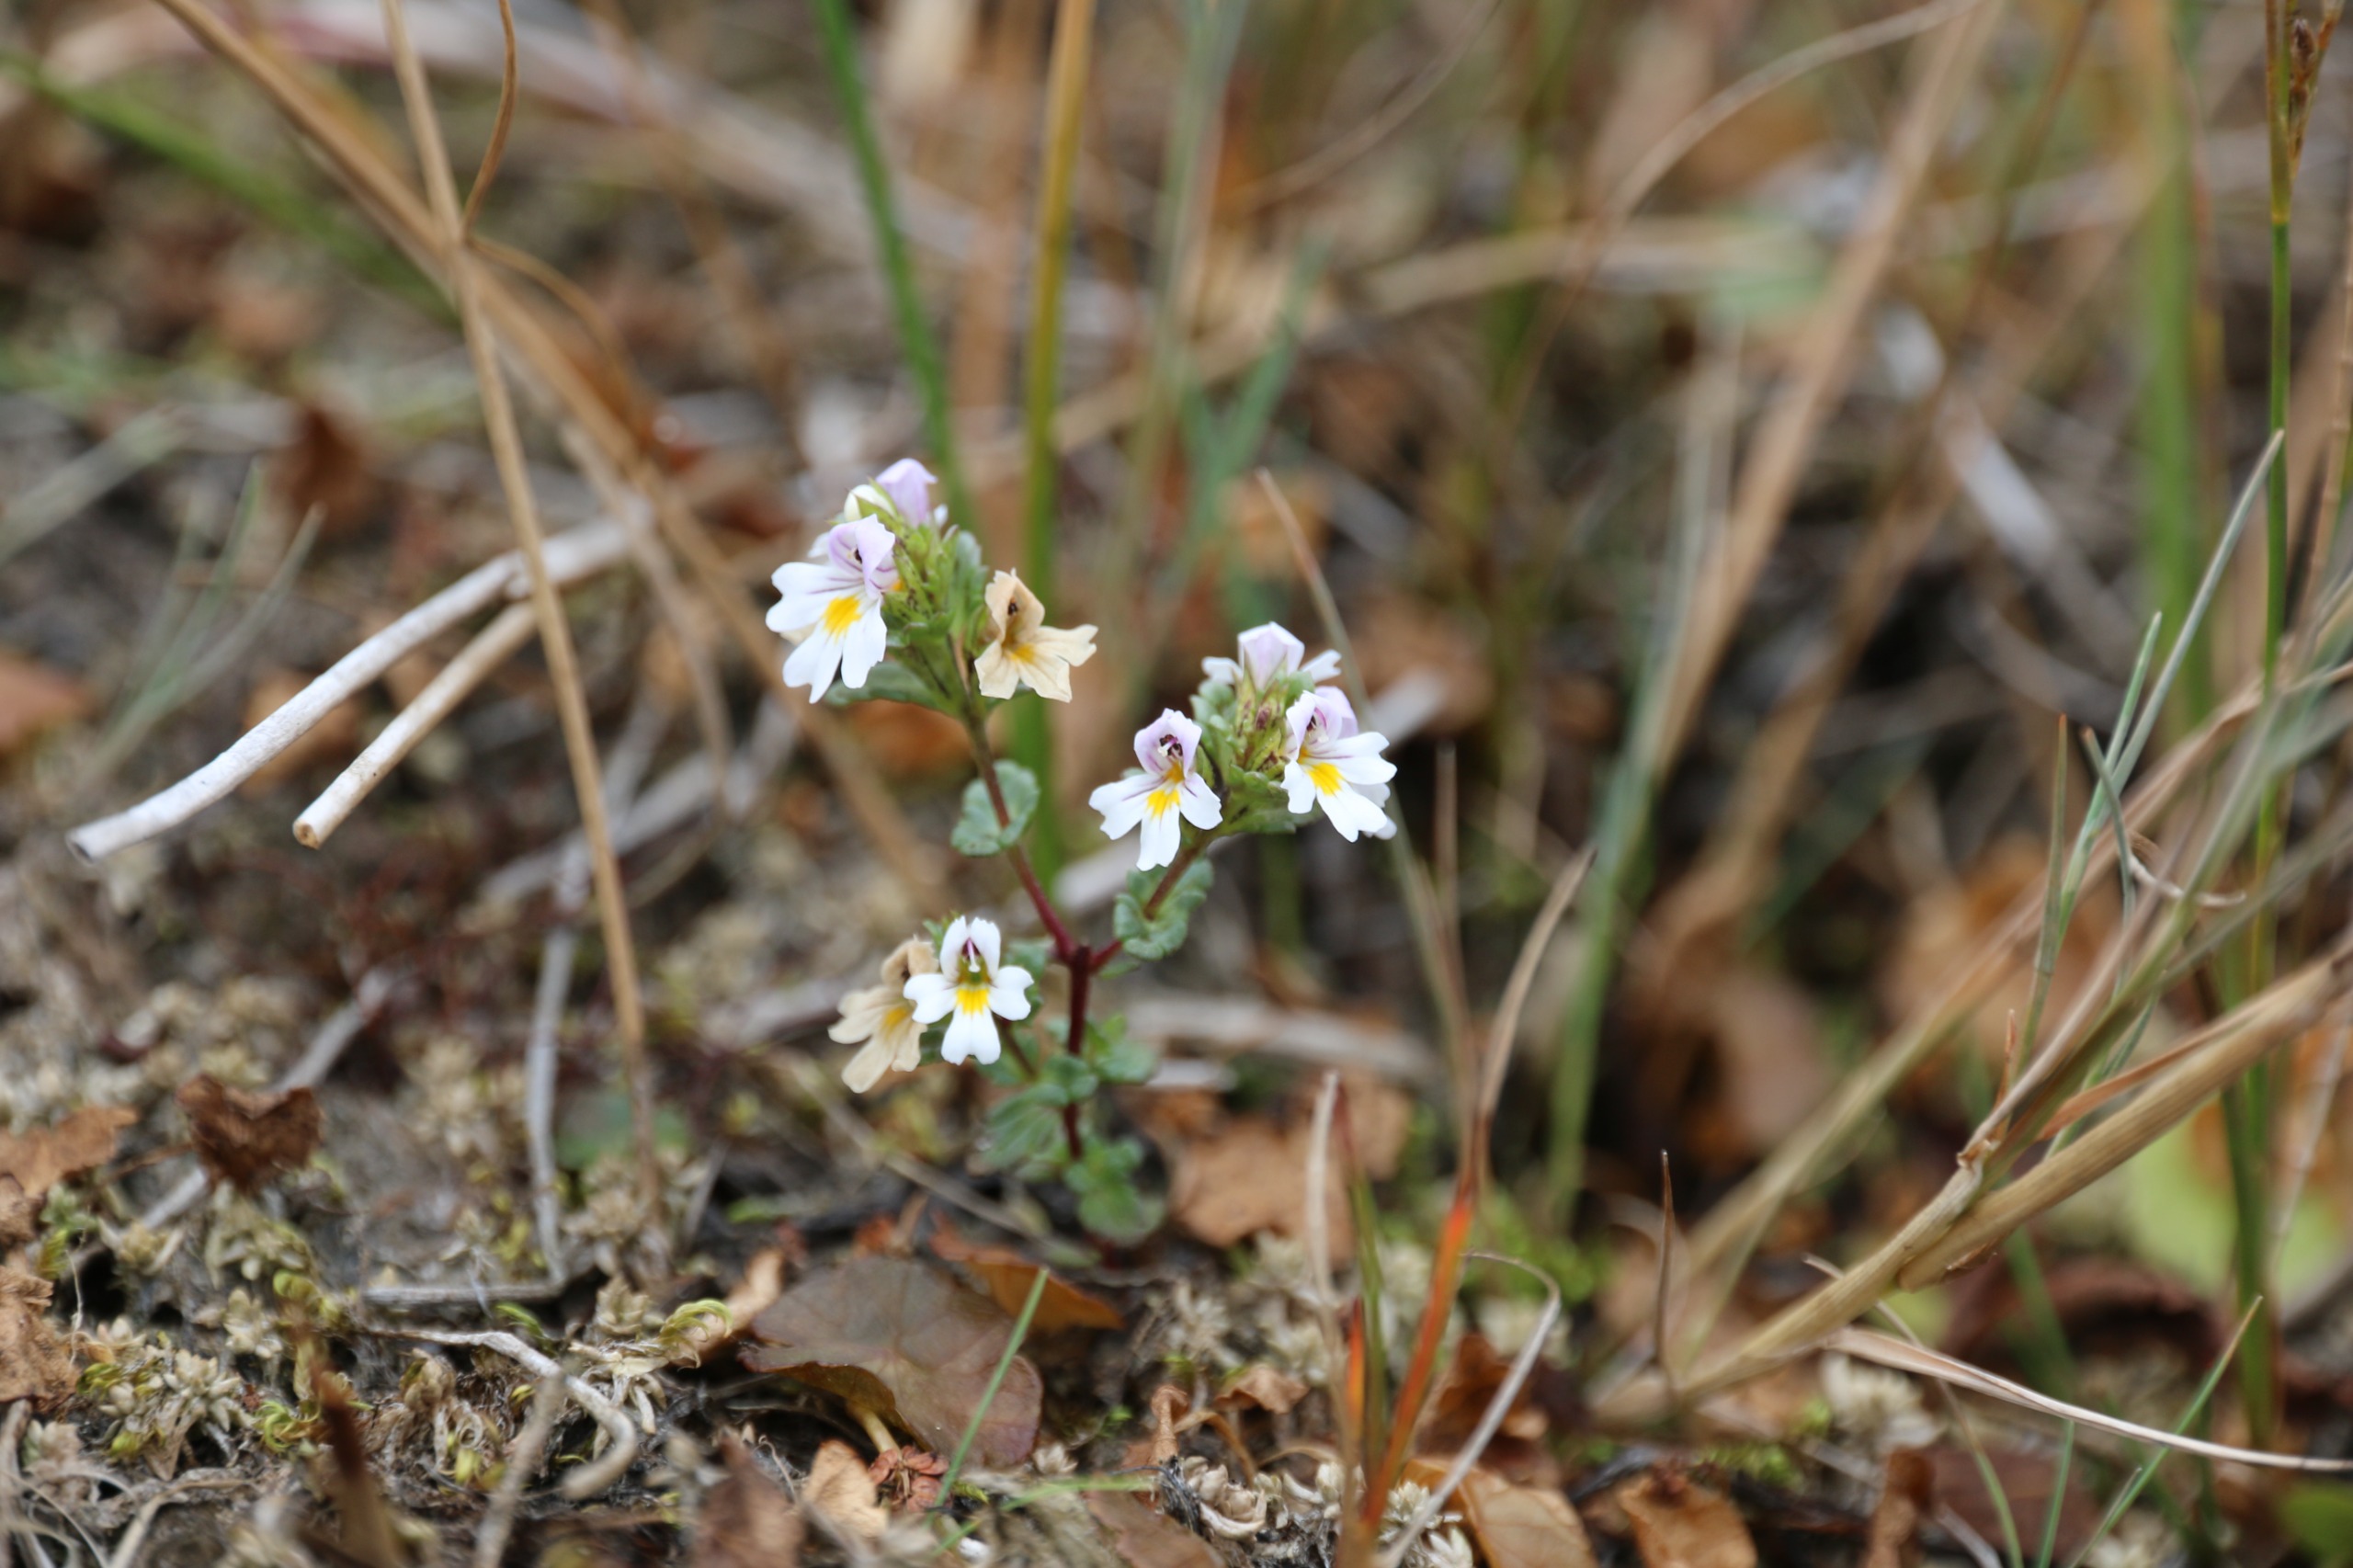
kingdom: Plantae
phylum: Tracheophyta
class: Magnoliopsida
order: Lamiales
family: Orobanchaceae
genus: Euphrasia
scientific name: Euphrasia arctica
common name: Nordisk øjentrøst
